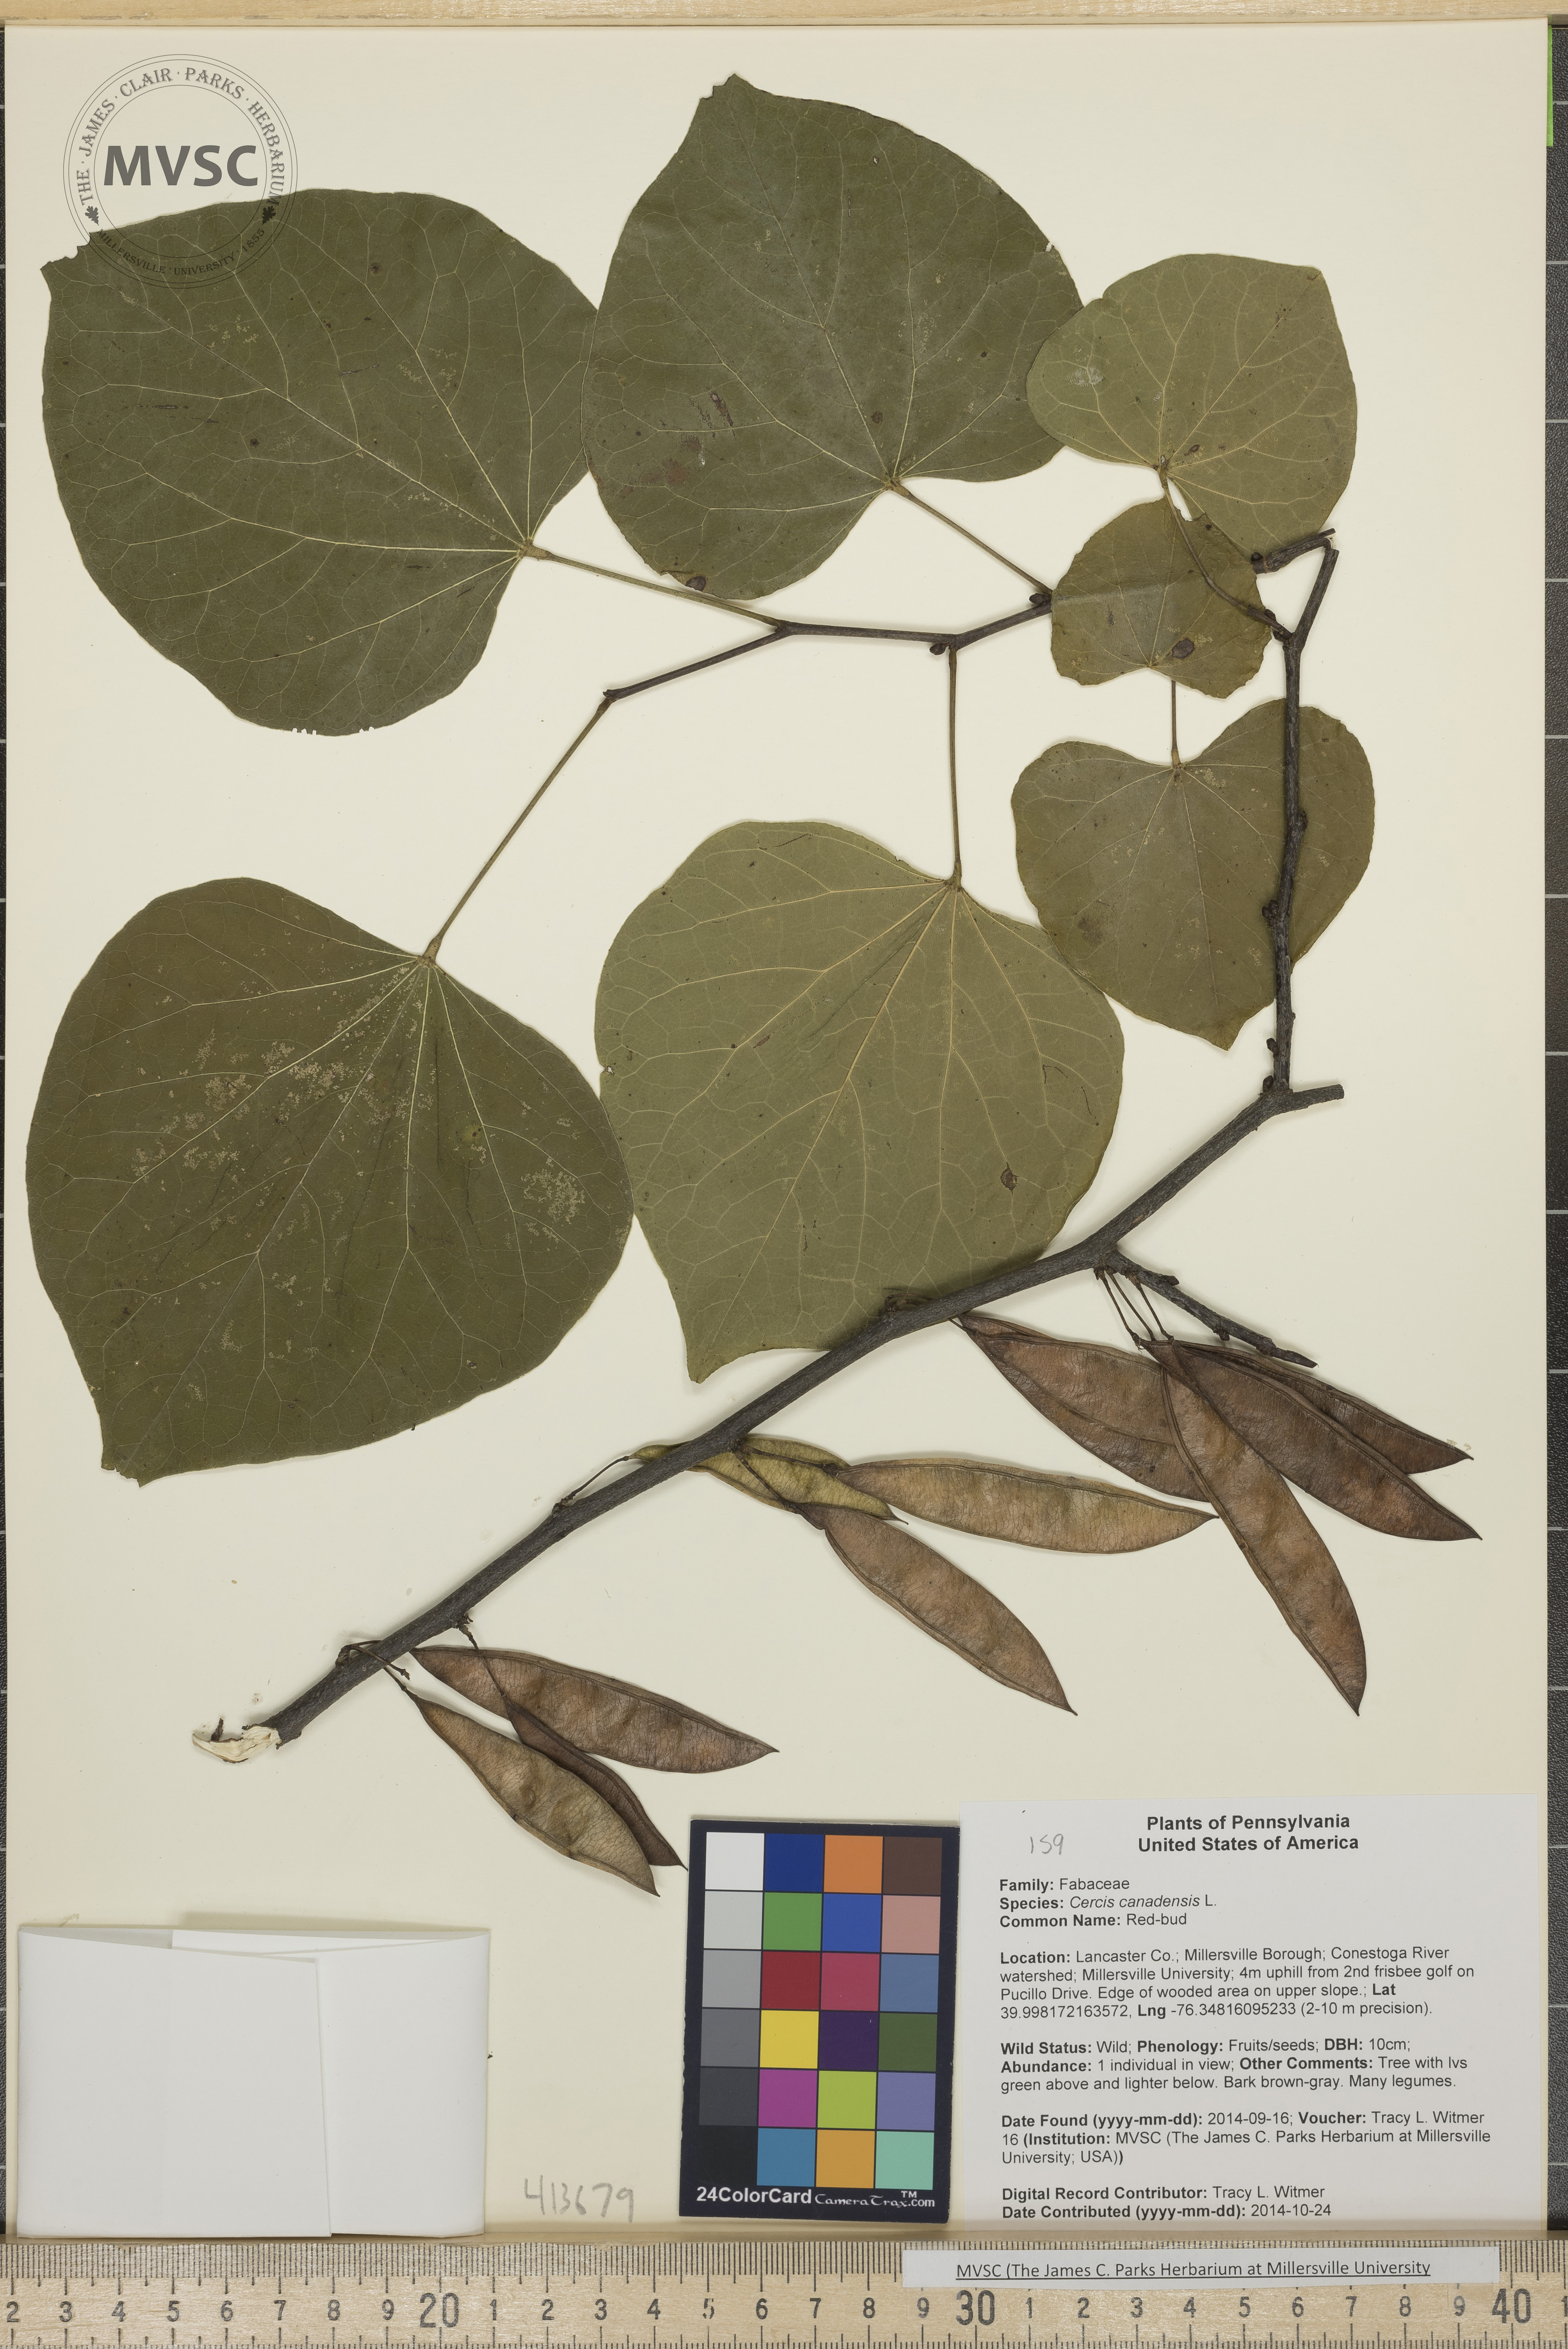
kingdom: Plantae
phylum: Tracheophyta
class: Magnoliopsida
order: Fabales
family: Fabaceae
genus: Cercis
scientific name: Cercis canadensis
